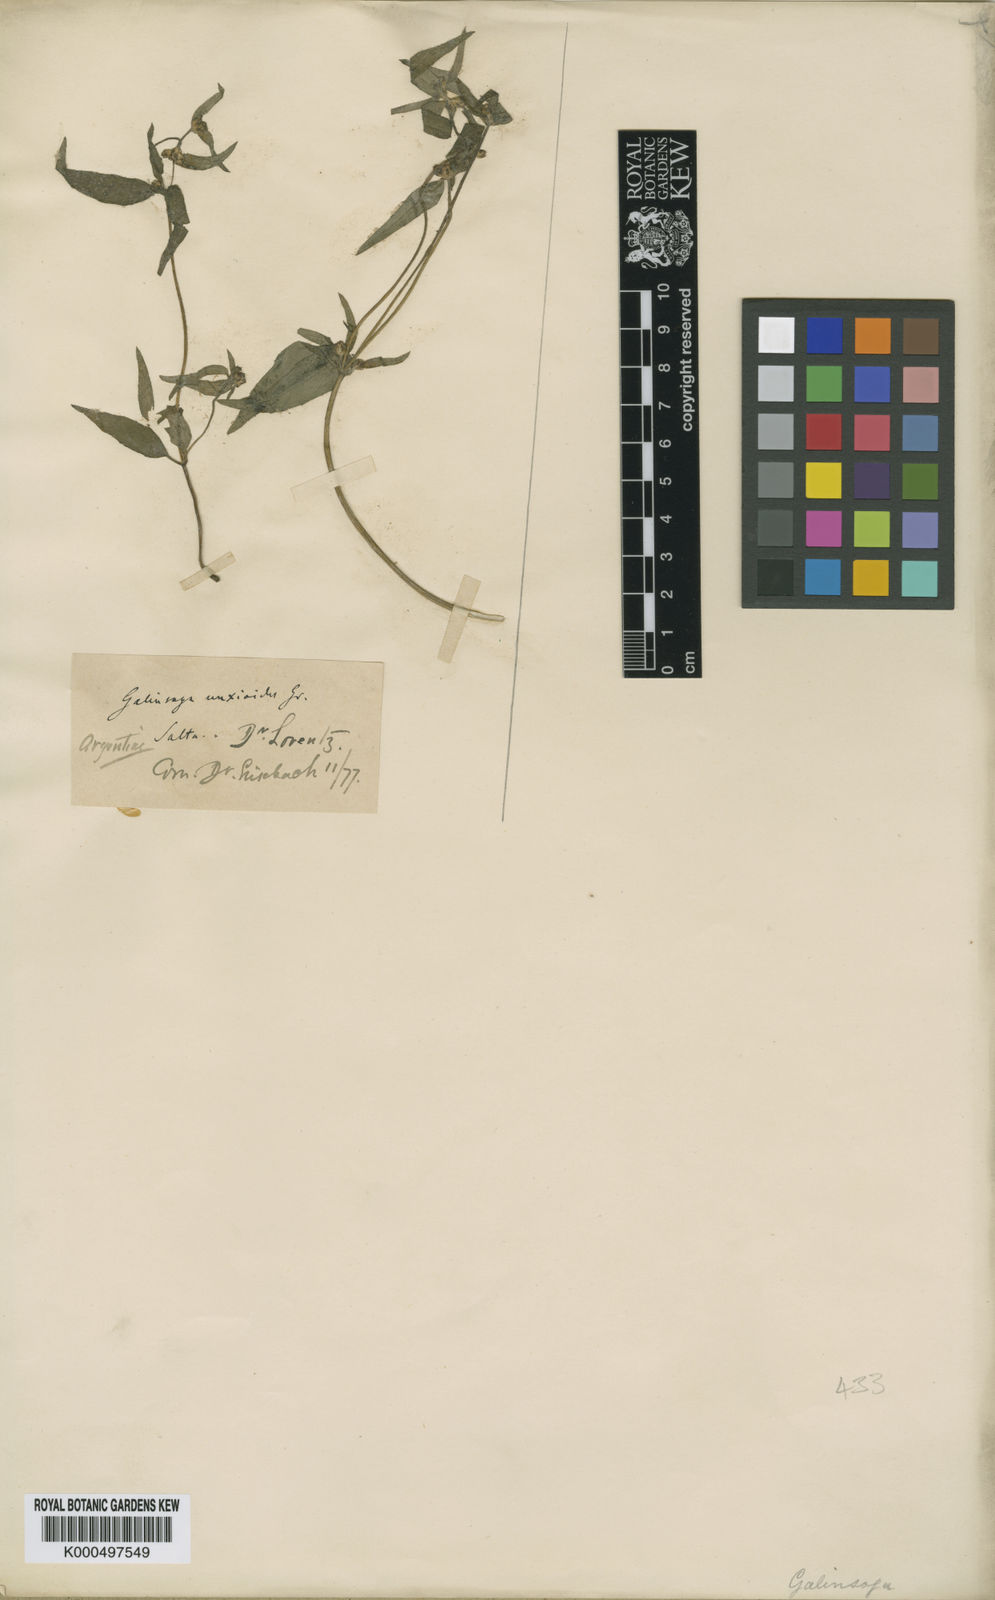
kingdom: Plantae
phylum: Tracheophyta
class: Magnoliopsida
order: Asterales
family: Asteraceae
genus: Galinsoga
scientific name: Galinsoga unxioides
